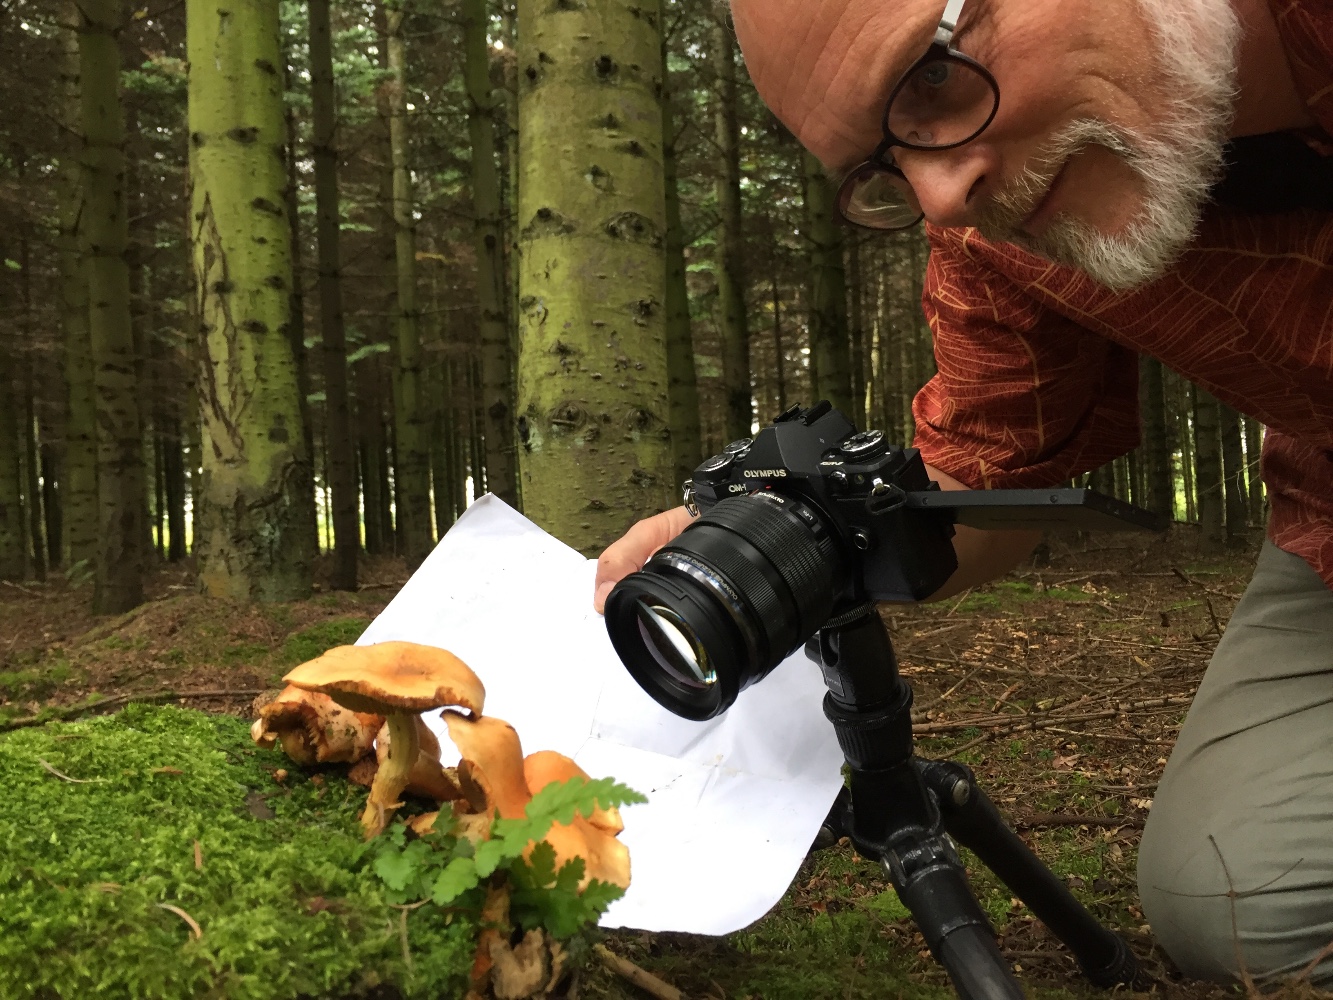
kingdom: Fungi
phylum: Basidiomycota
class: Agaricomycetes
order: Agaricales
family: Strophariaceae
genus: Pyrrhulomyces
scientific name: Pyrrhulomyces astragalinus
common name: safran-skælhat
